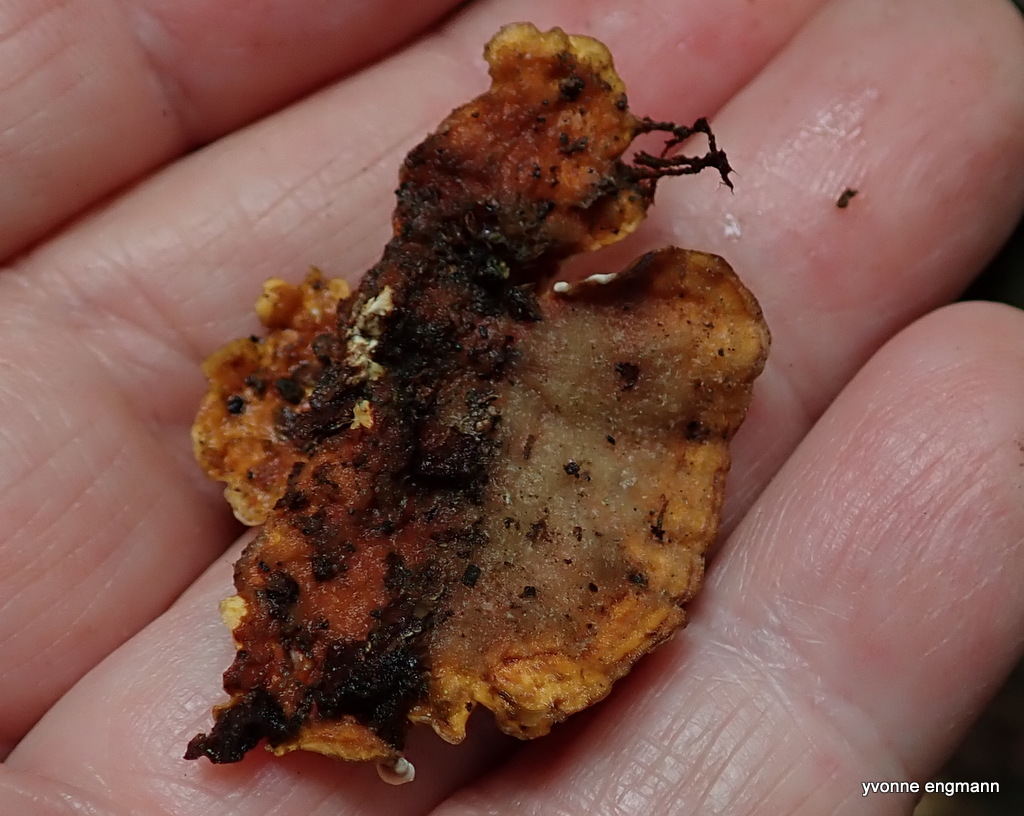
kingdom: Fungi
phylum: Basidiomycota
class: Agaricomycetes
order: Russulales
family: Stereaceae
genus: Stereum
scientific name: Stereum hirsutum
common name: håret lædersvamp
